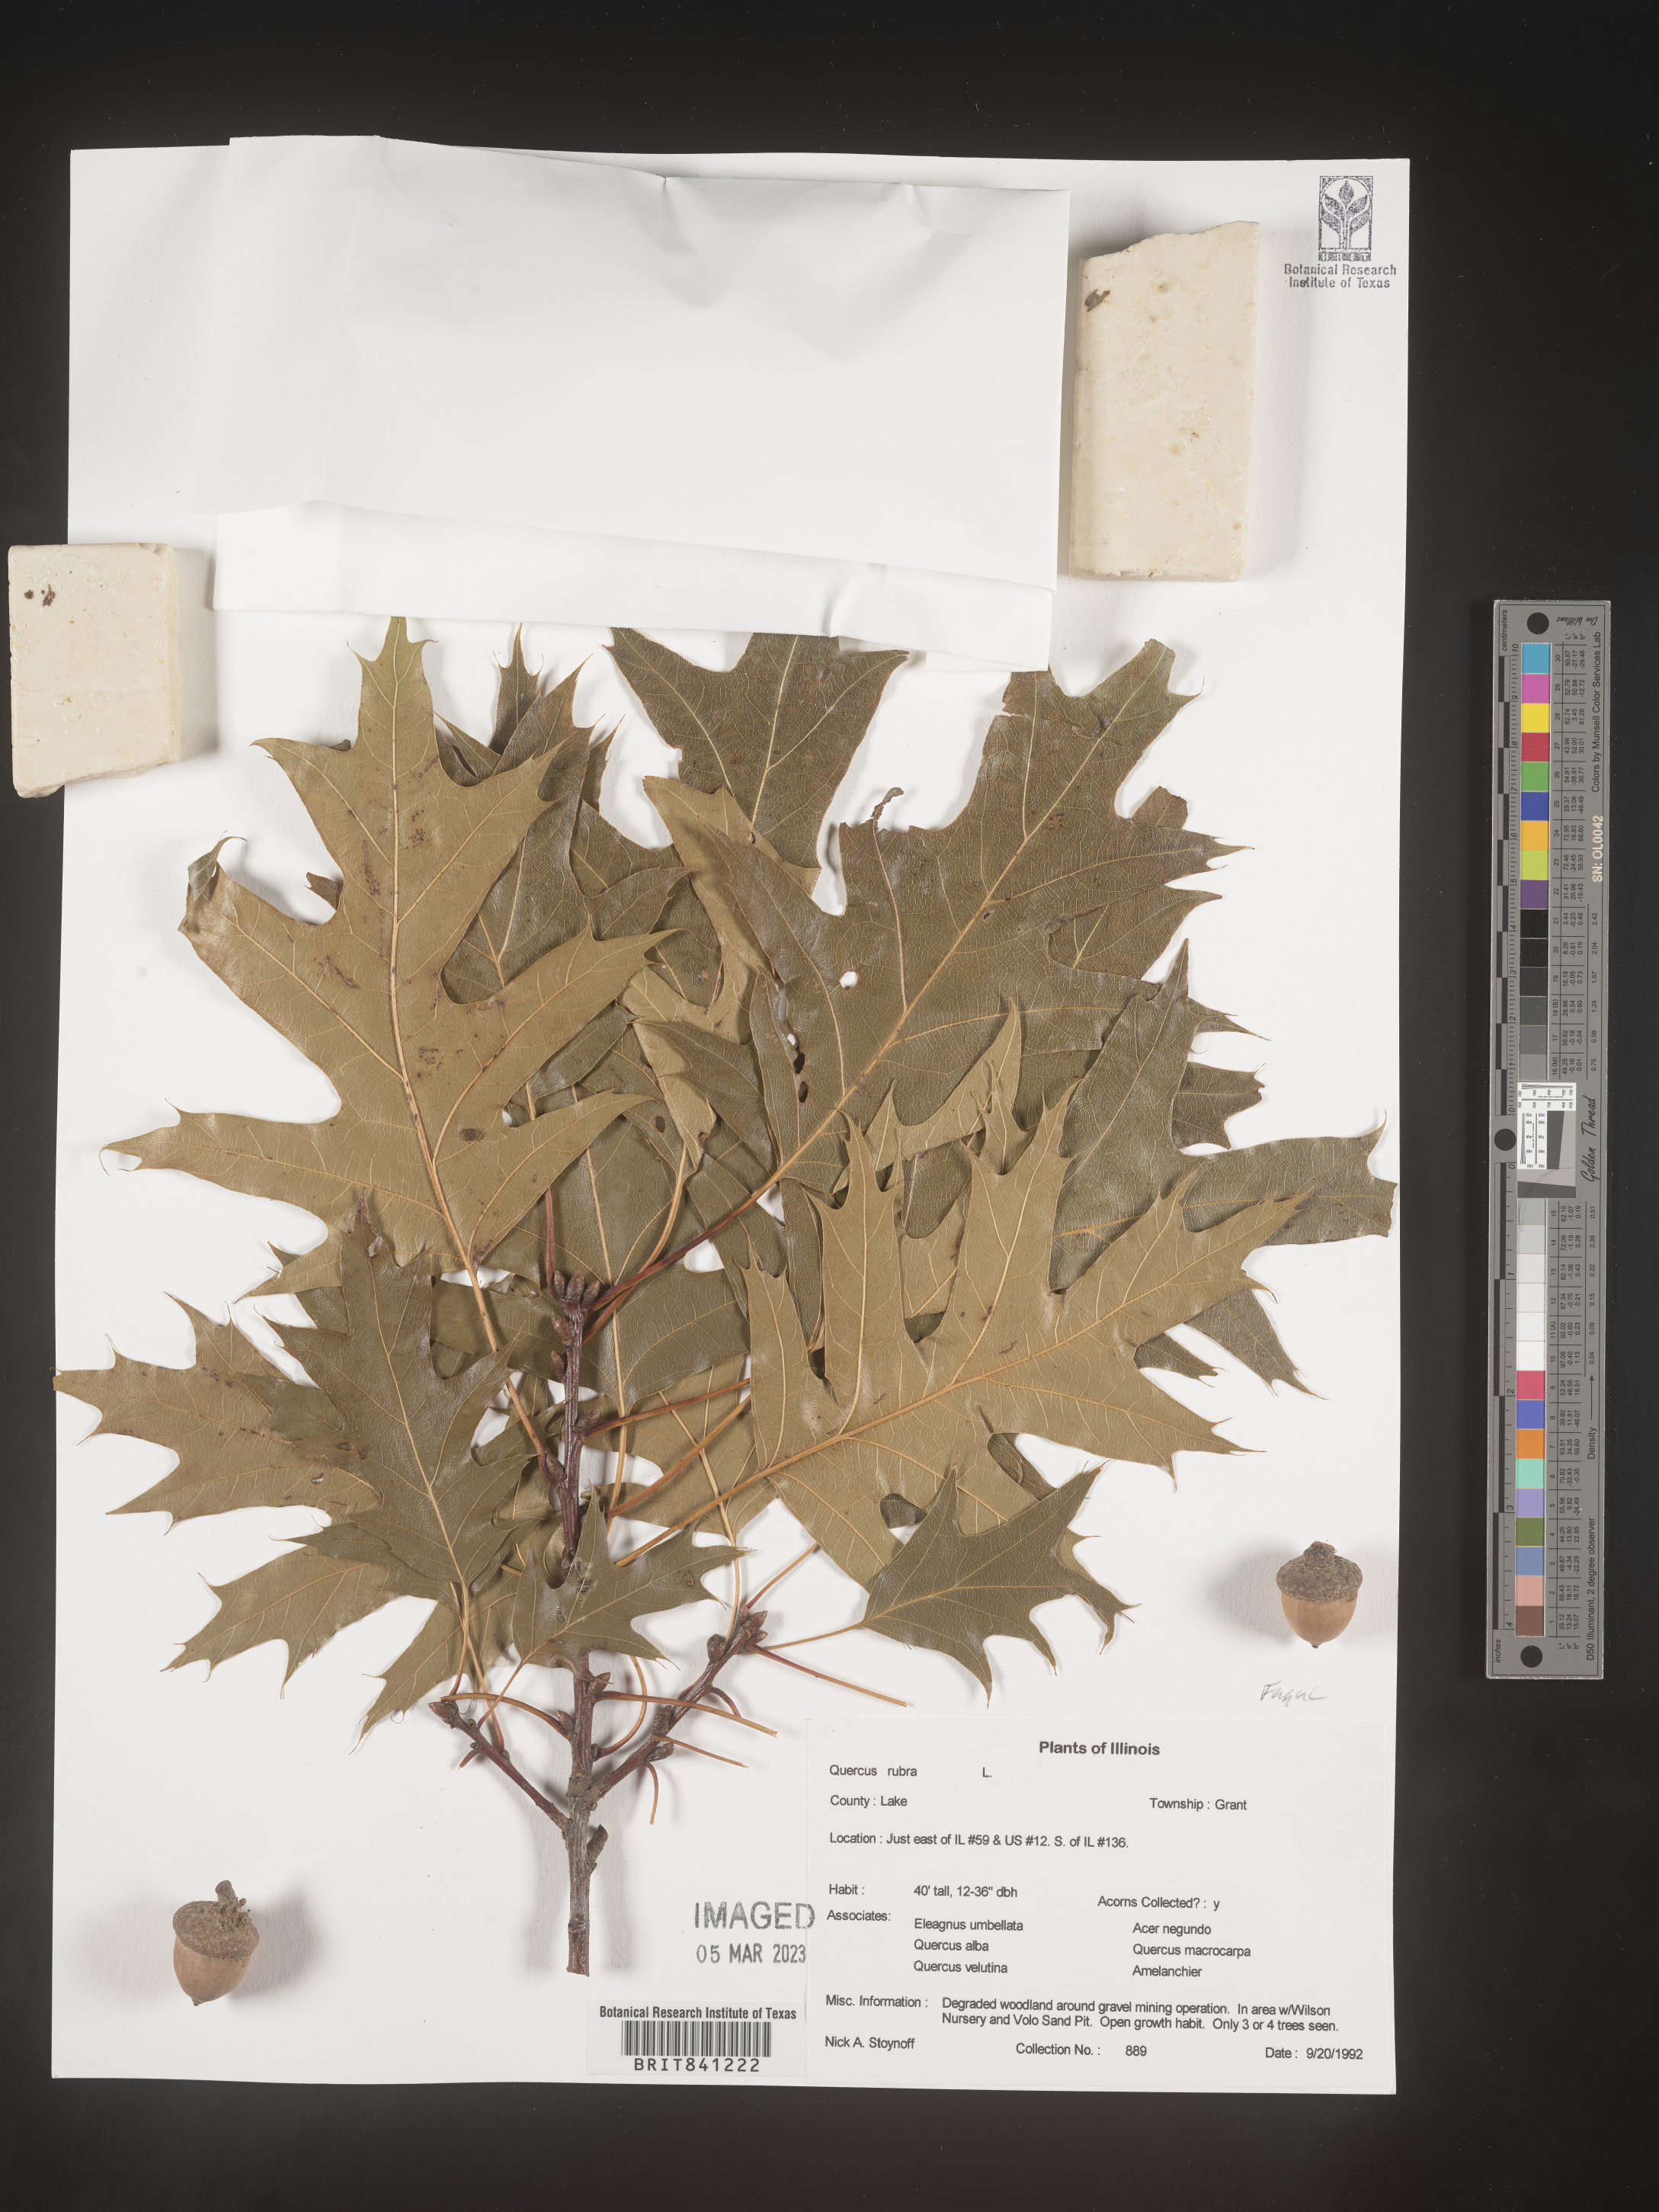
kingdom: Plantae
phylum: Tracheophyta
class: Magnoliopsida
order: Fagales
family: Fagaceae
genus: Quercus
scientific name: Quercus rubra
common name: Red oak
